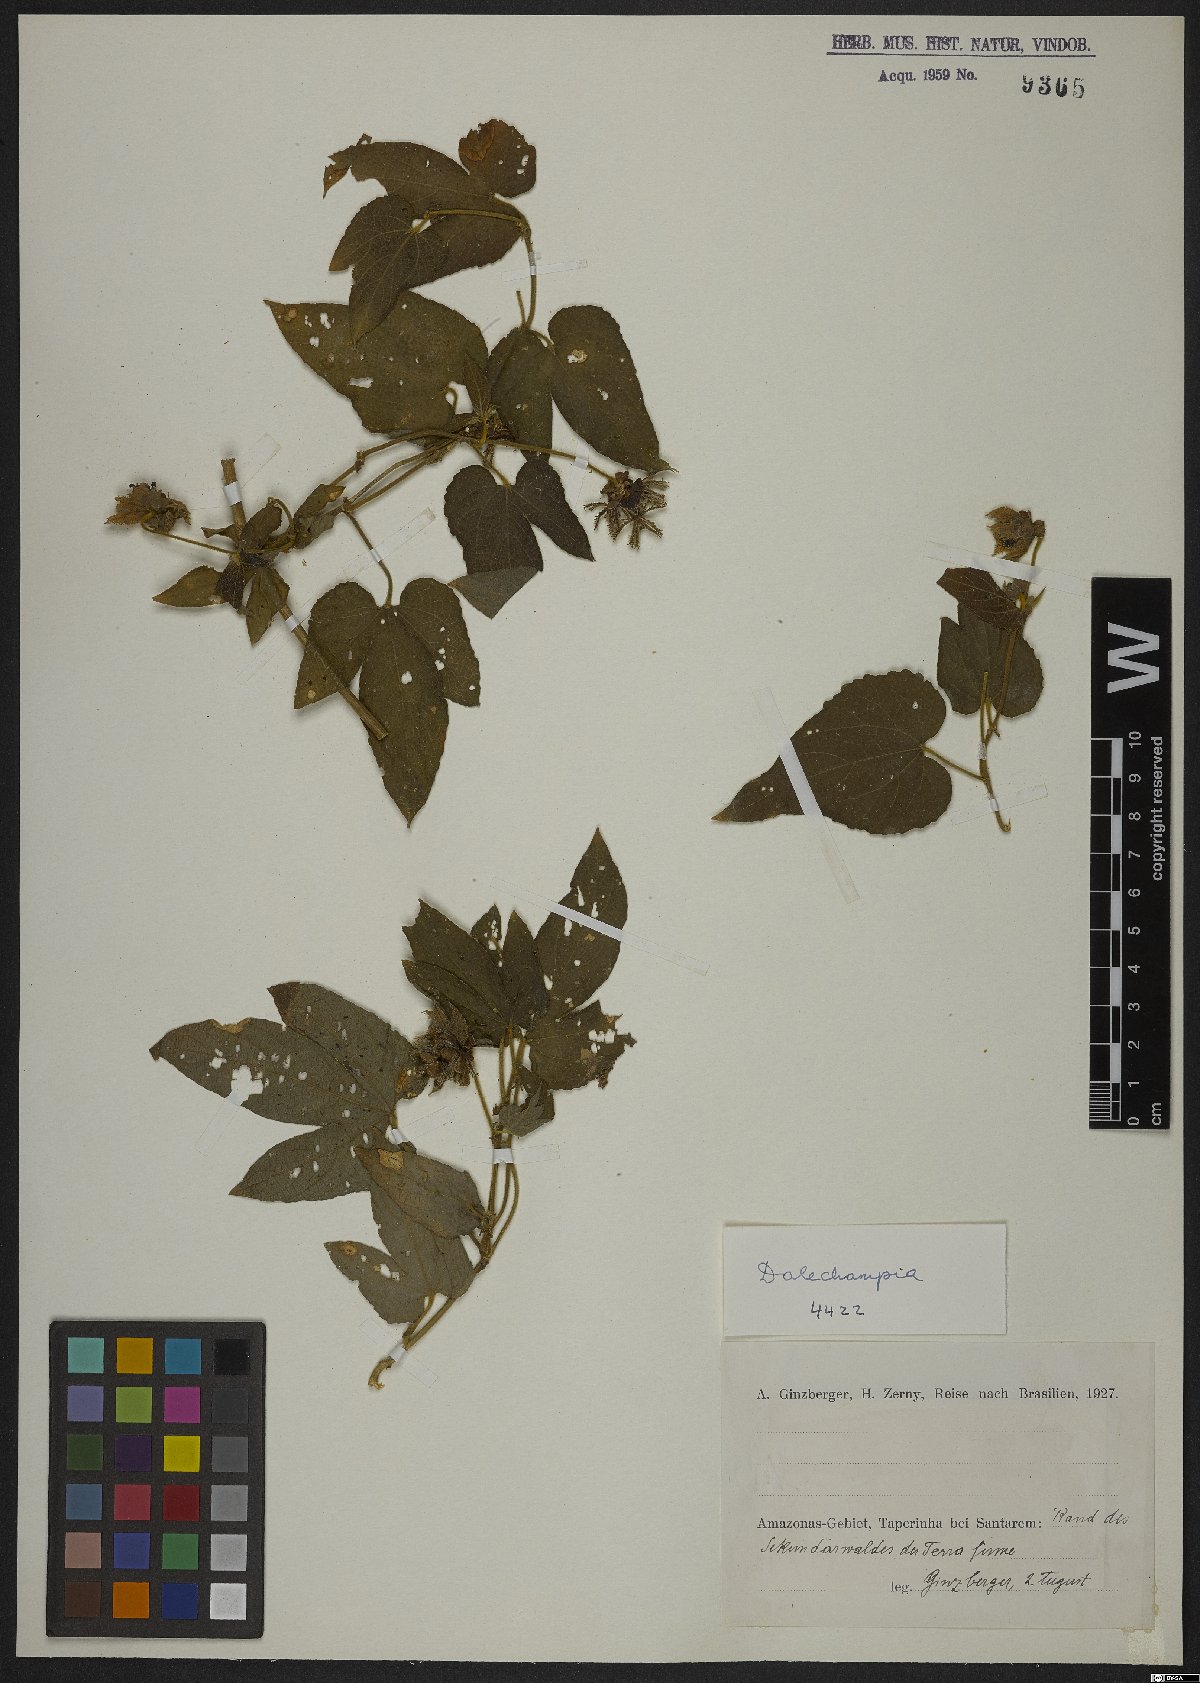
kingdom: Plantae
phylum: Tracheophyta
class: Magnoliopsida
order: Malpighiales
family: Euphorbiaceae
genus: Dalechampia
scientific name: Dalechampia
